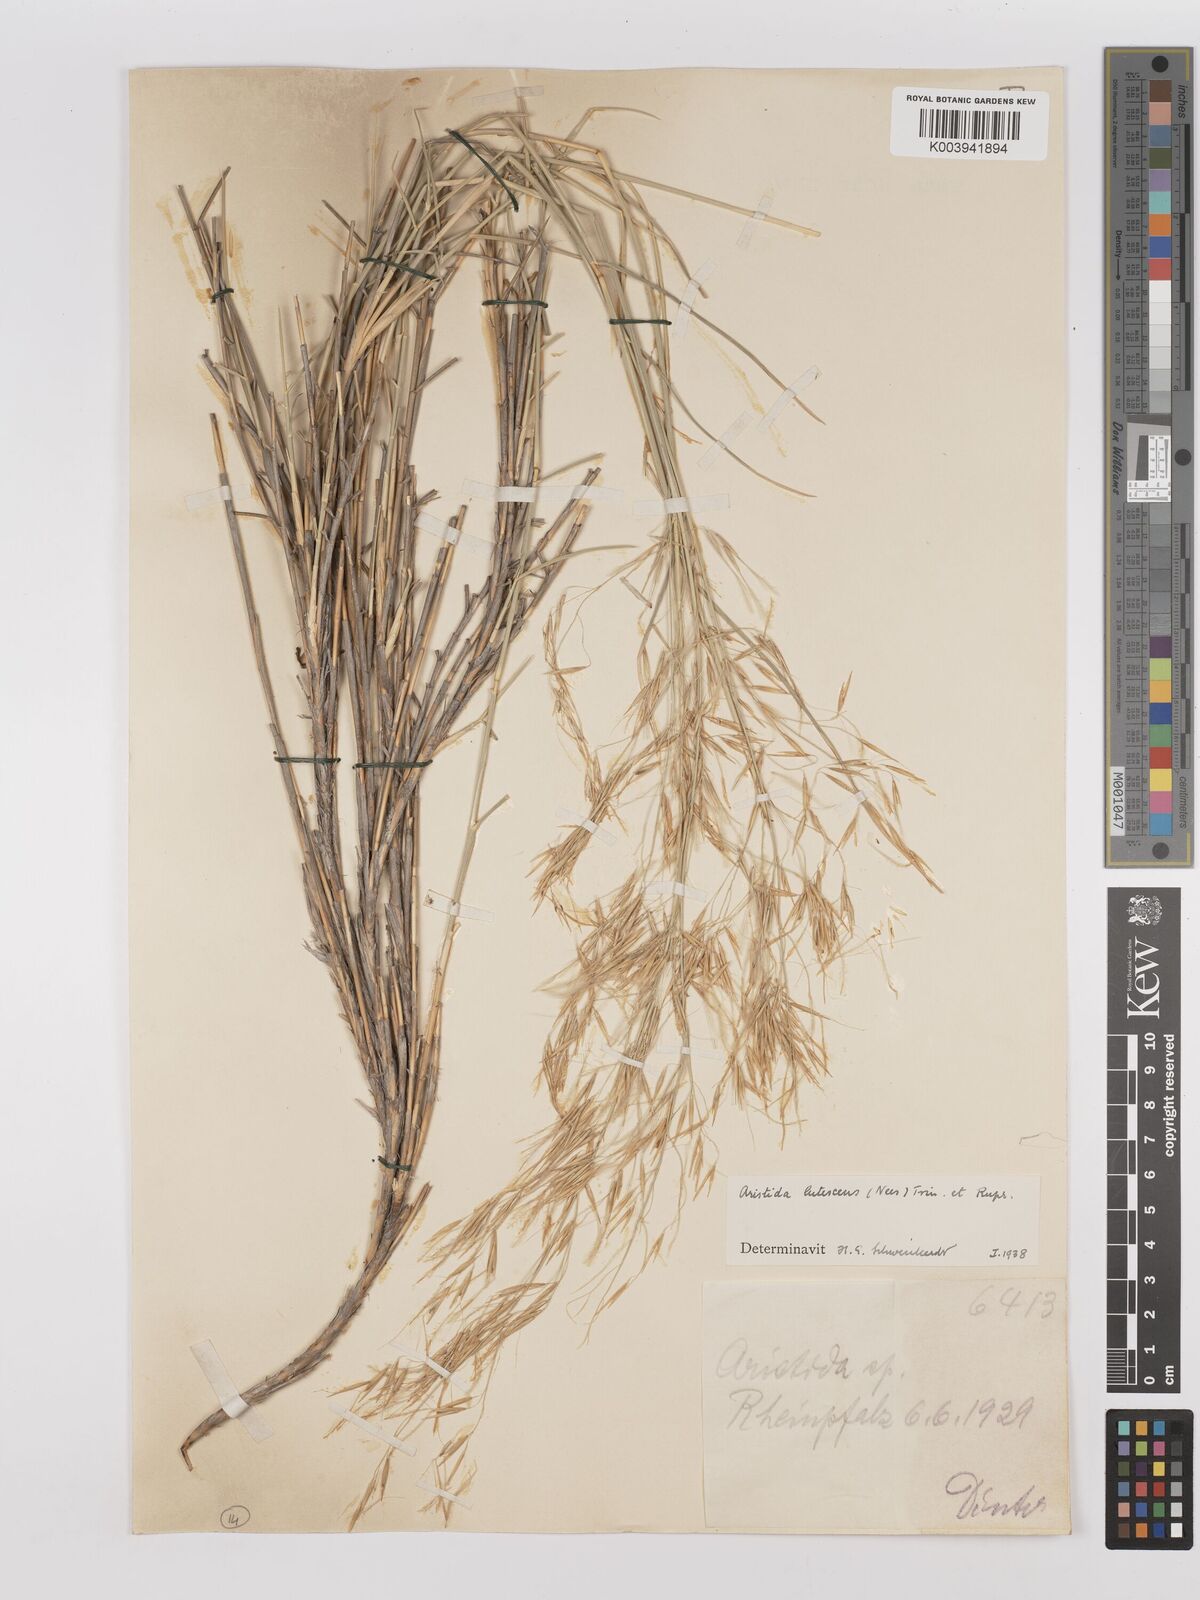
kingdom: Plantae
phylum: Tracheophyta
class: Liliopsida
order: Poales
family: Poaceae
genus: Stipagrostis
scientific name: Stipagrostis lutescens
